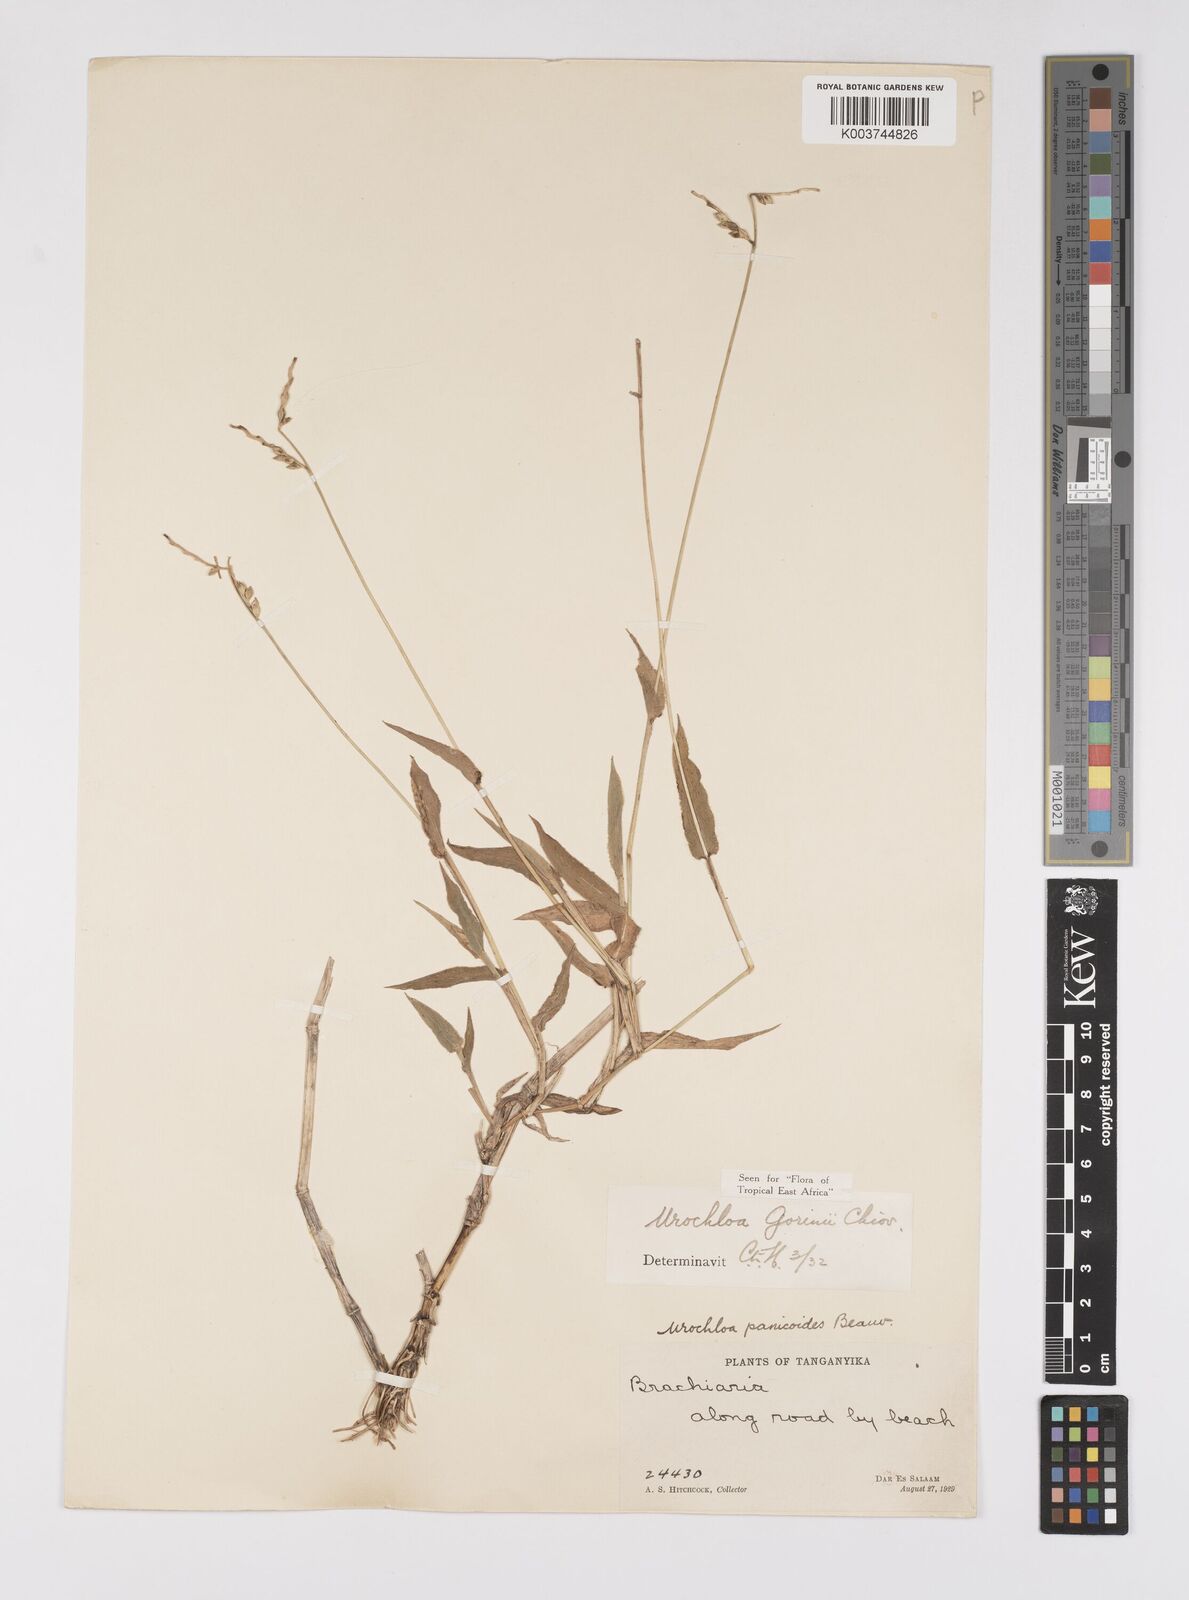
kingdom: Plantae
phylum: Tracheophyta
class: Liliopsida
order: Poales
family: Poaceae
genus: Urochloa
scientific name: Urochloa rudis
